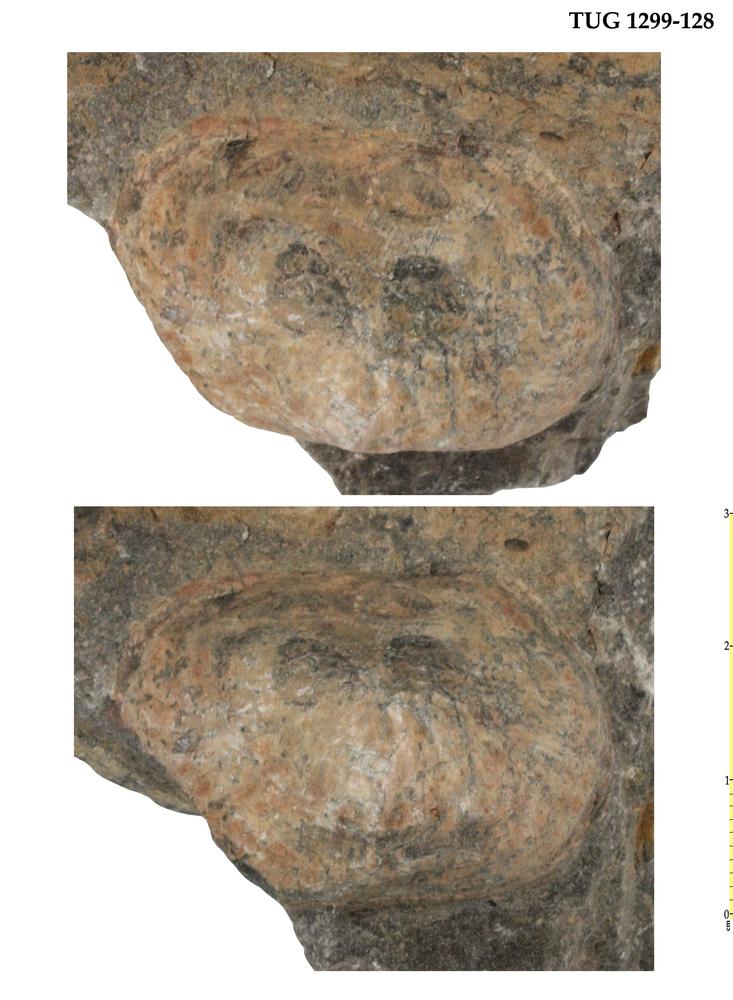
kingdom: Animalia
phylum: Mollusca
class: Bivalvia
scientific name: Bivalvia
